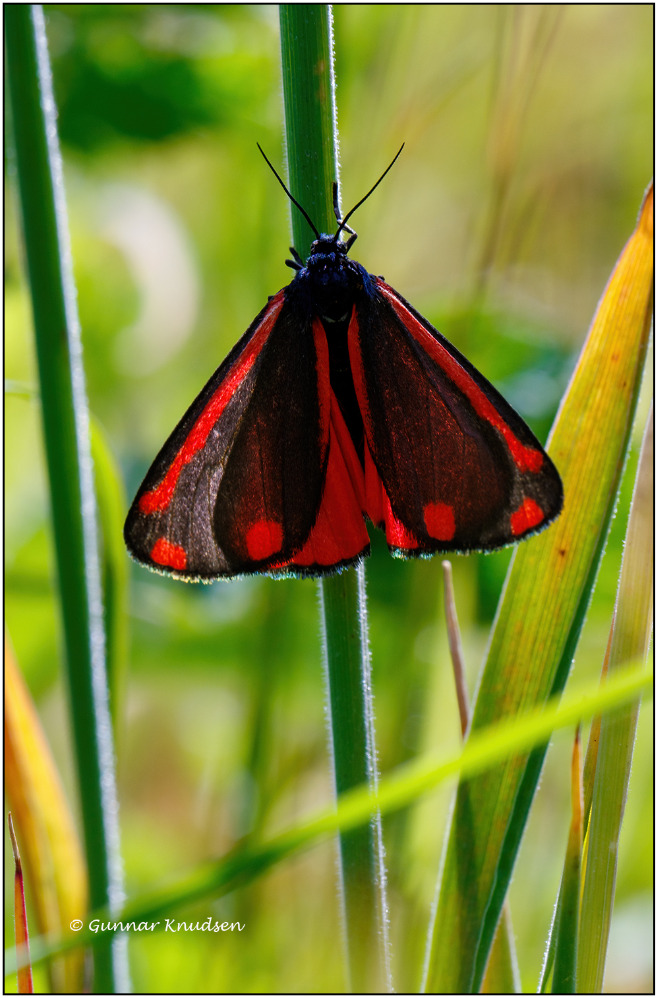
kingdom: Animalia
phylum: Arthropoda
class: Insecta
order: Lepidoptera
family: Erebidae
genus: Tyria
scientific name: Tyria jacobaeae
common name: Blodplet
